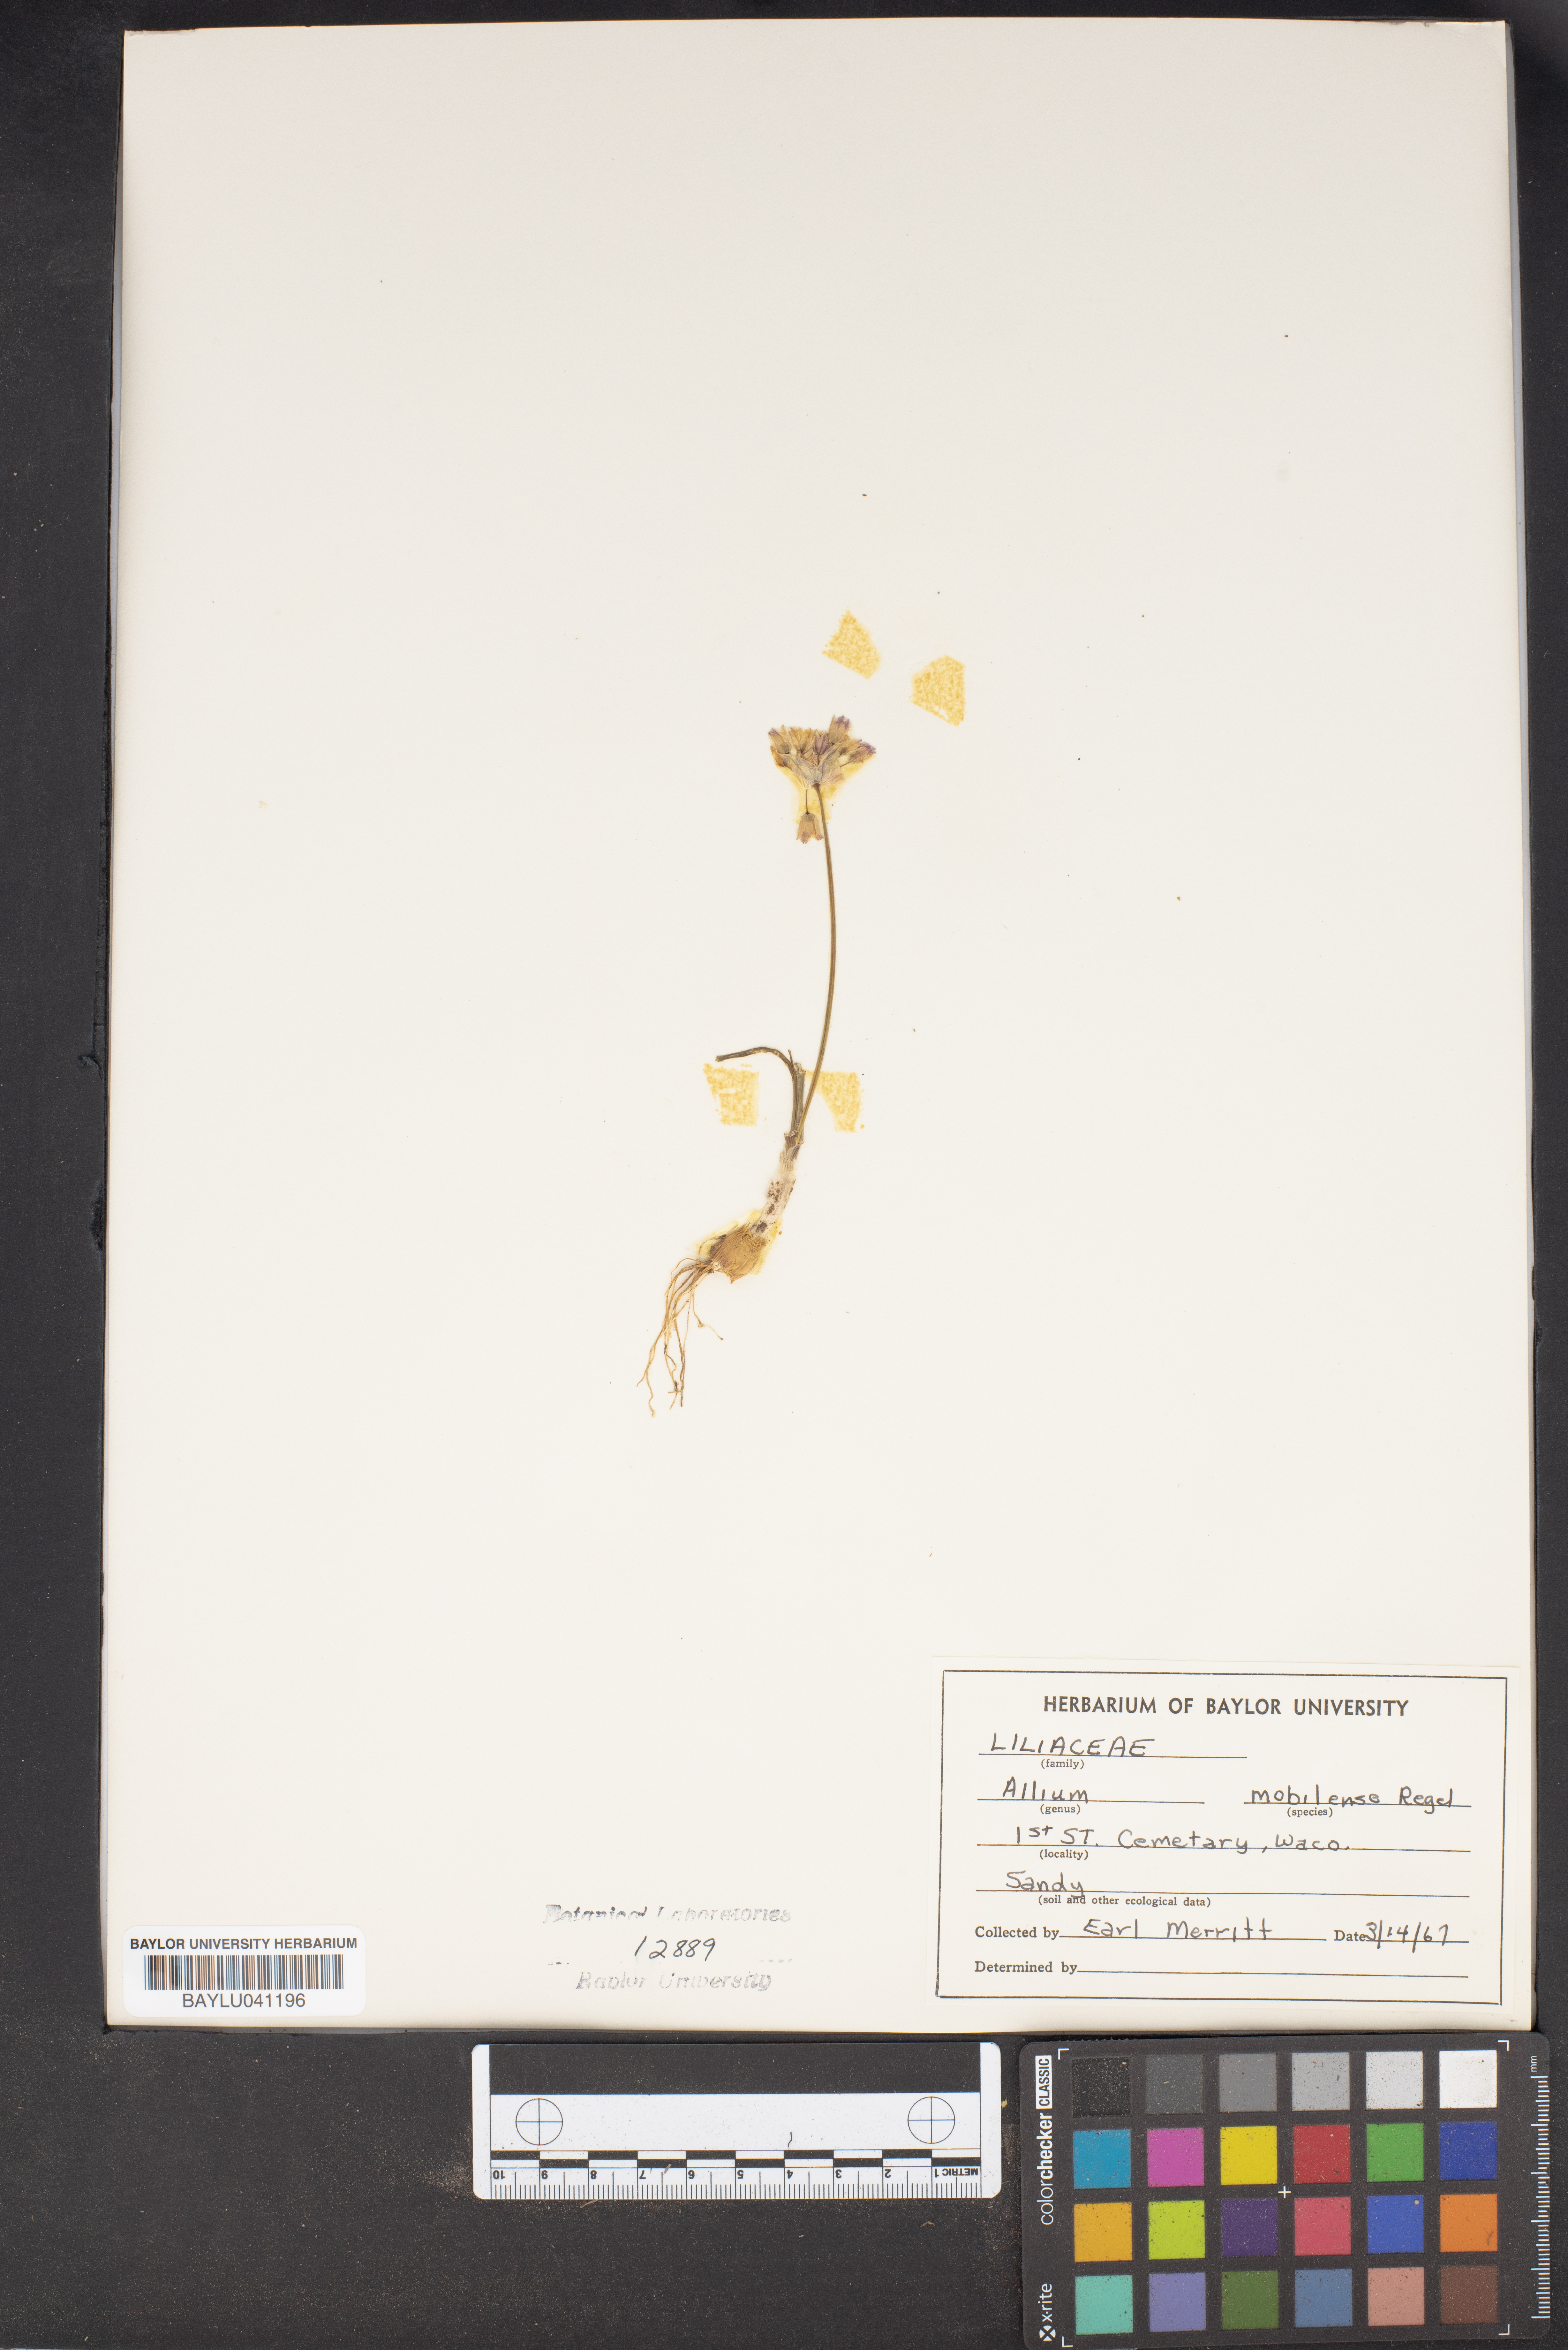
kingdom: Plantae
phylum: Tracheophyta
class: Liliopsida
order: Asparagales
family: Amaryllidaceae
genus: Allium
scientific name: Allium canadense
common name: Meadow garlic
